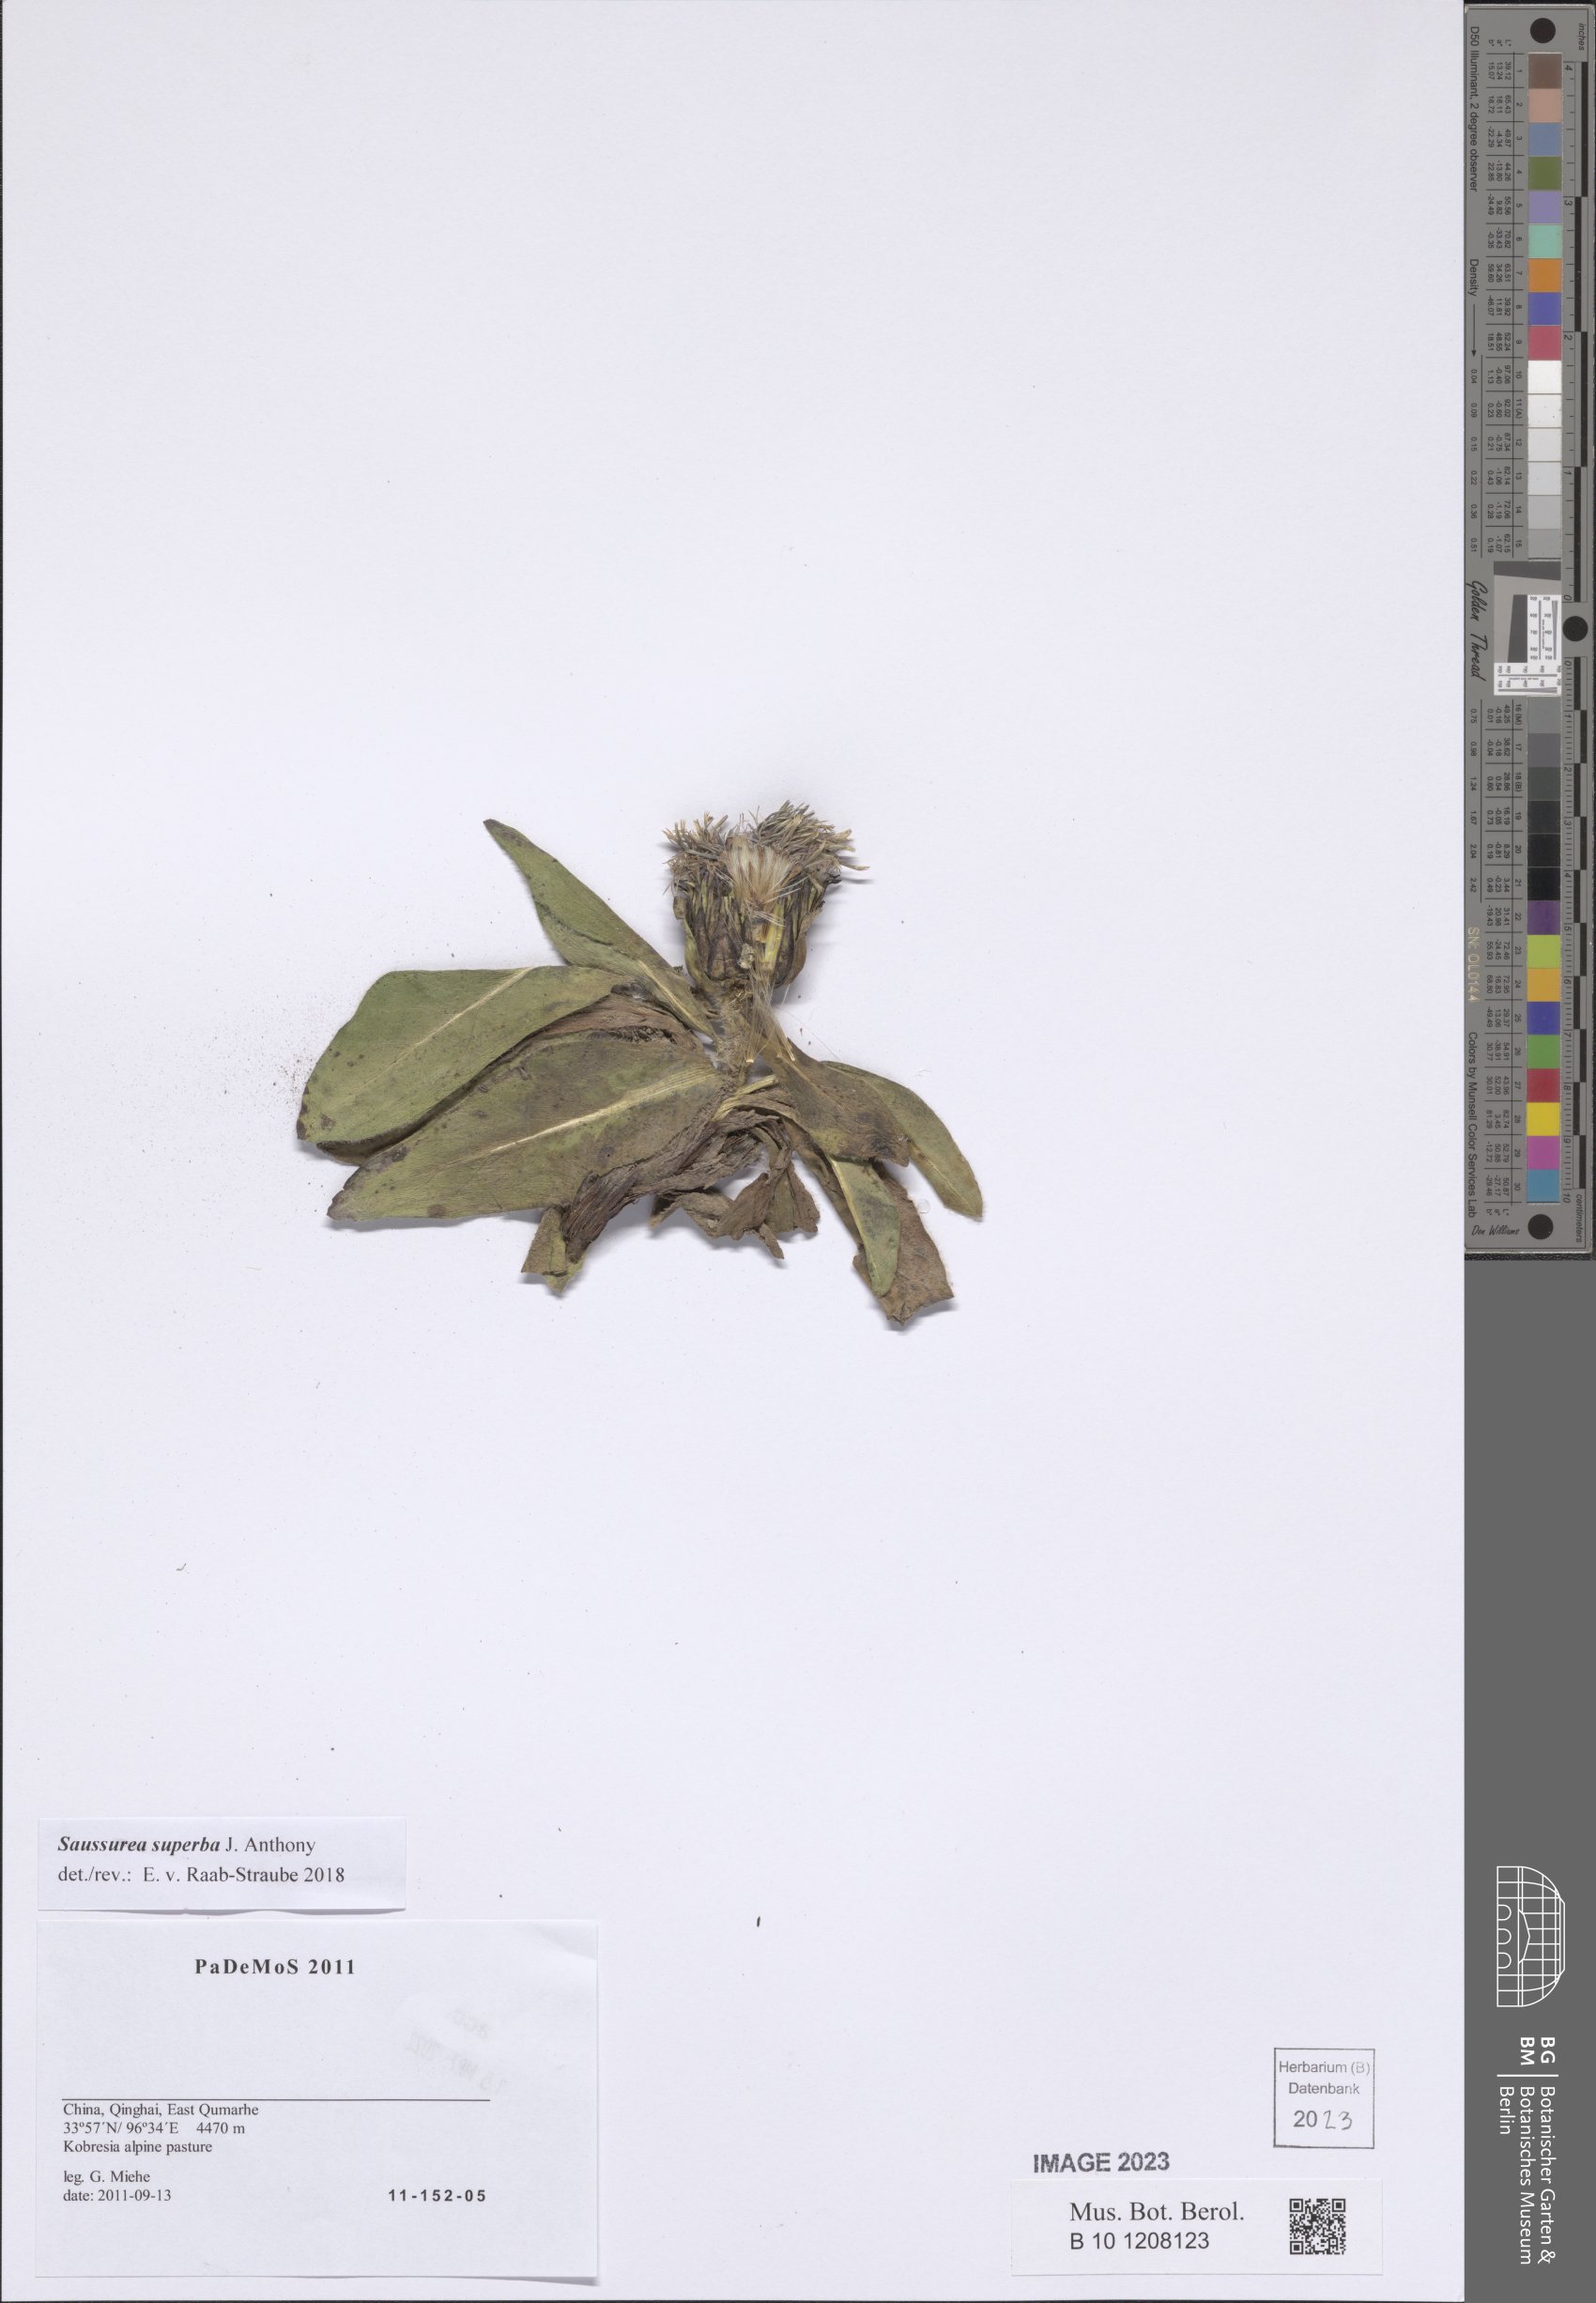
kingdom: Plantae
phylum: Tracheophyta
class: Magnoliopsida
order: Asterales
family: Asteraceae
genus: Saussurea
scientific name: Saussurea superba
